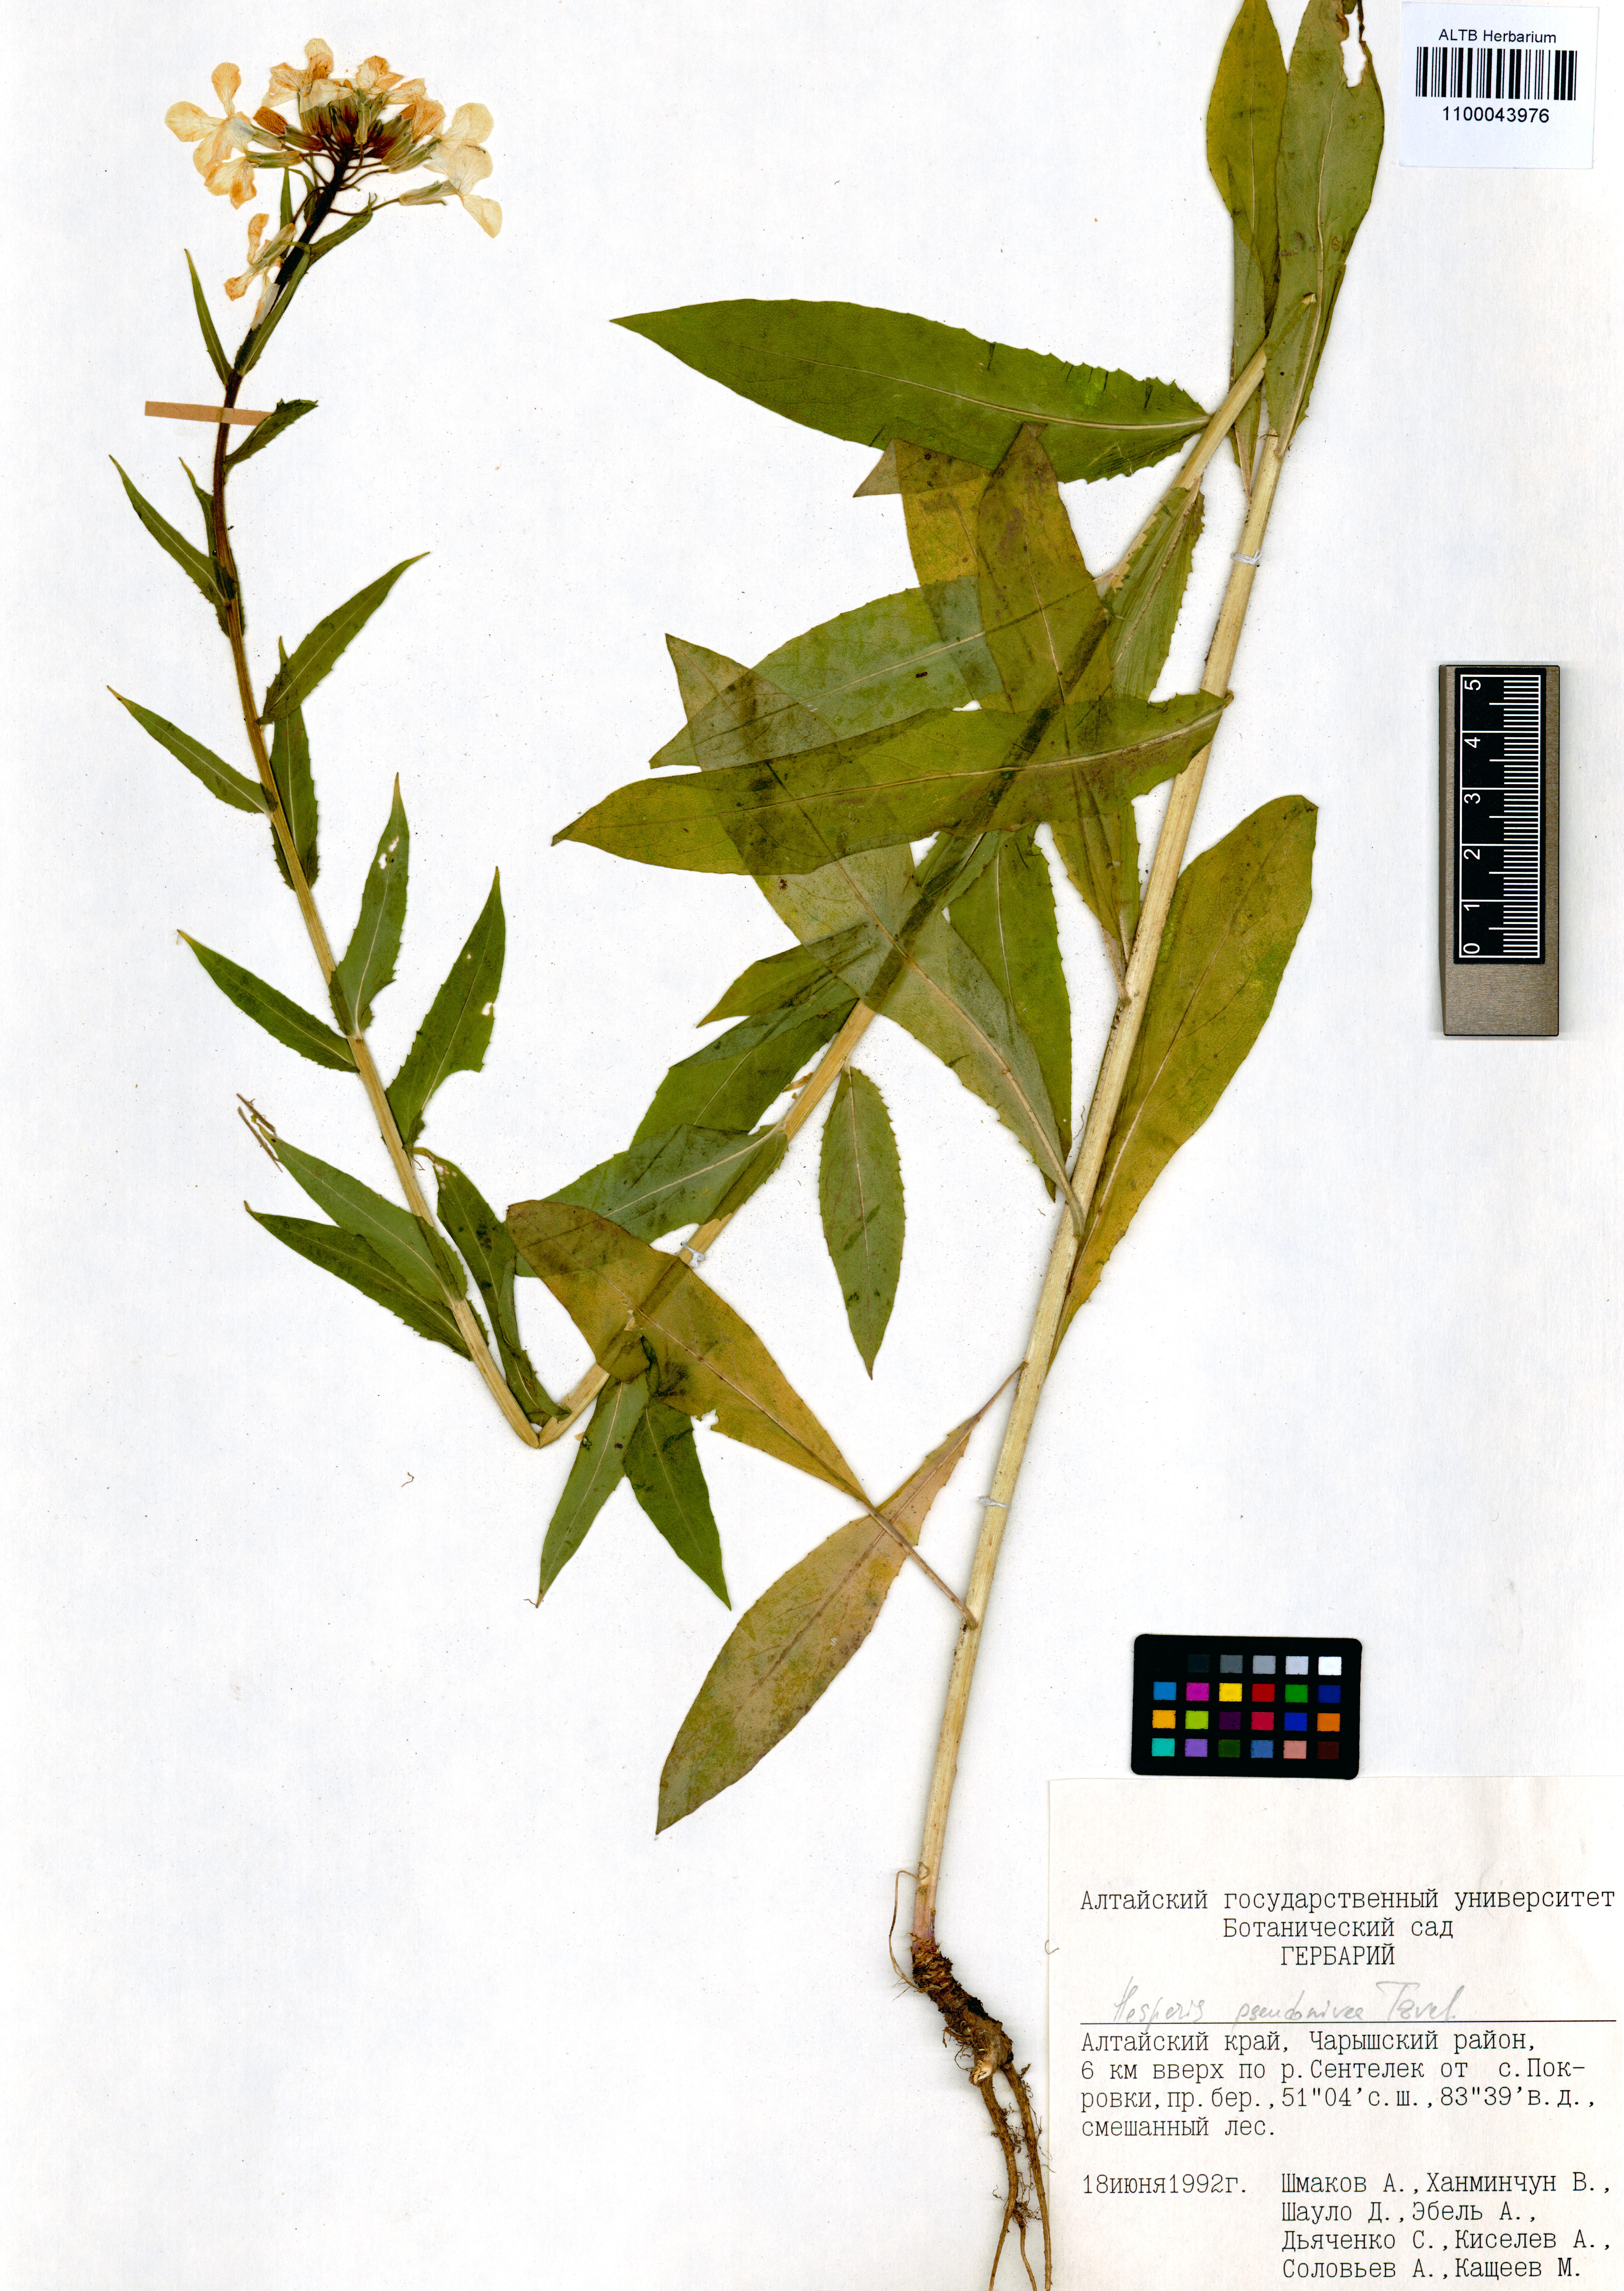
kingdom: Plantae
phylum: Tracheophyta
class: Magnoliopsida
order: Brassicales
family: Brassicaceae
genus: Hesperis
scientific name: Hesperis sibirica
